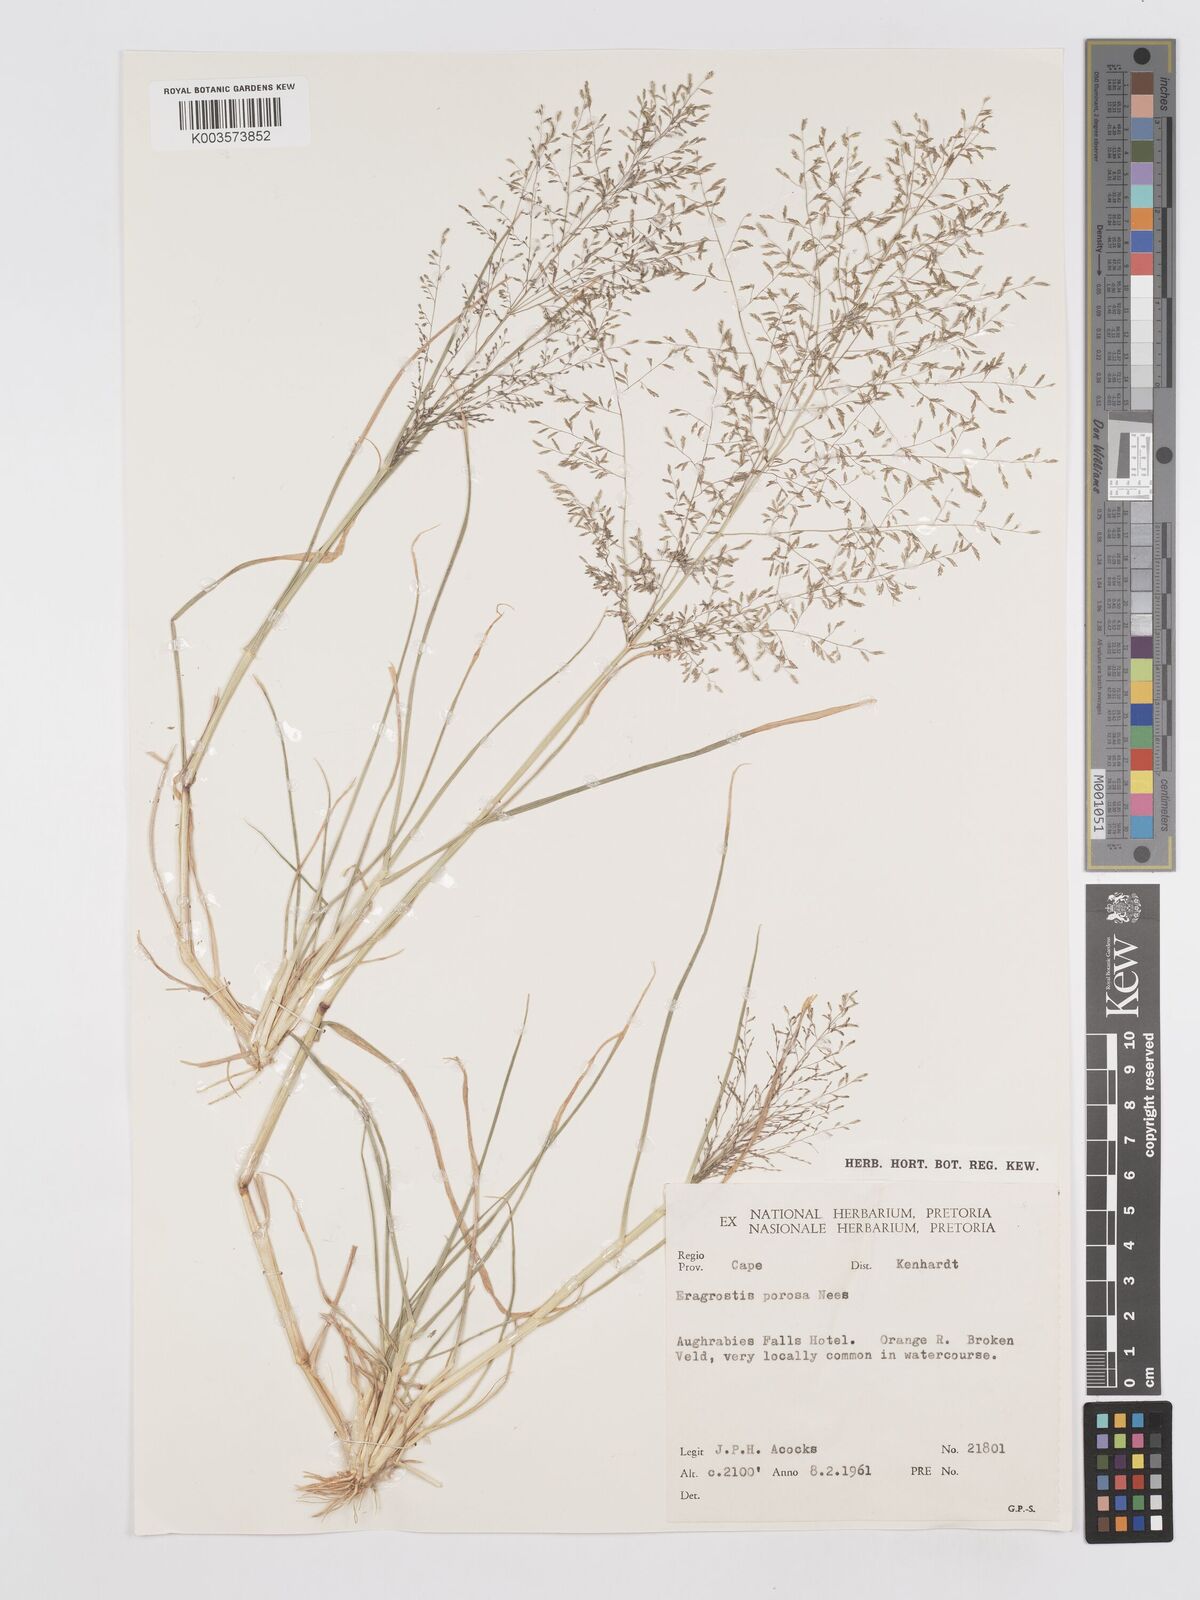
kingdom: Plantae
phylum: Tracheophyta
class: Liliopsida
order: Poales
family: Poaceae
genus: Eragrostis
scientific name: Eragrostis porosa
